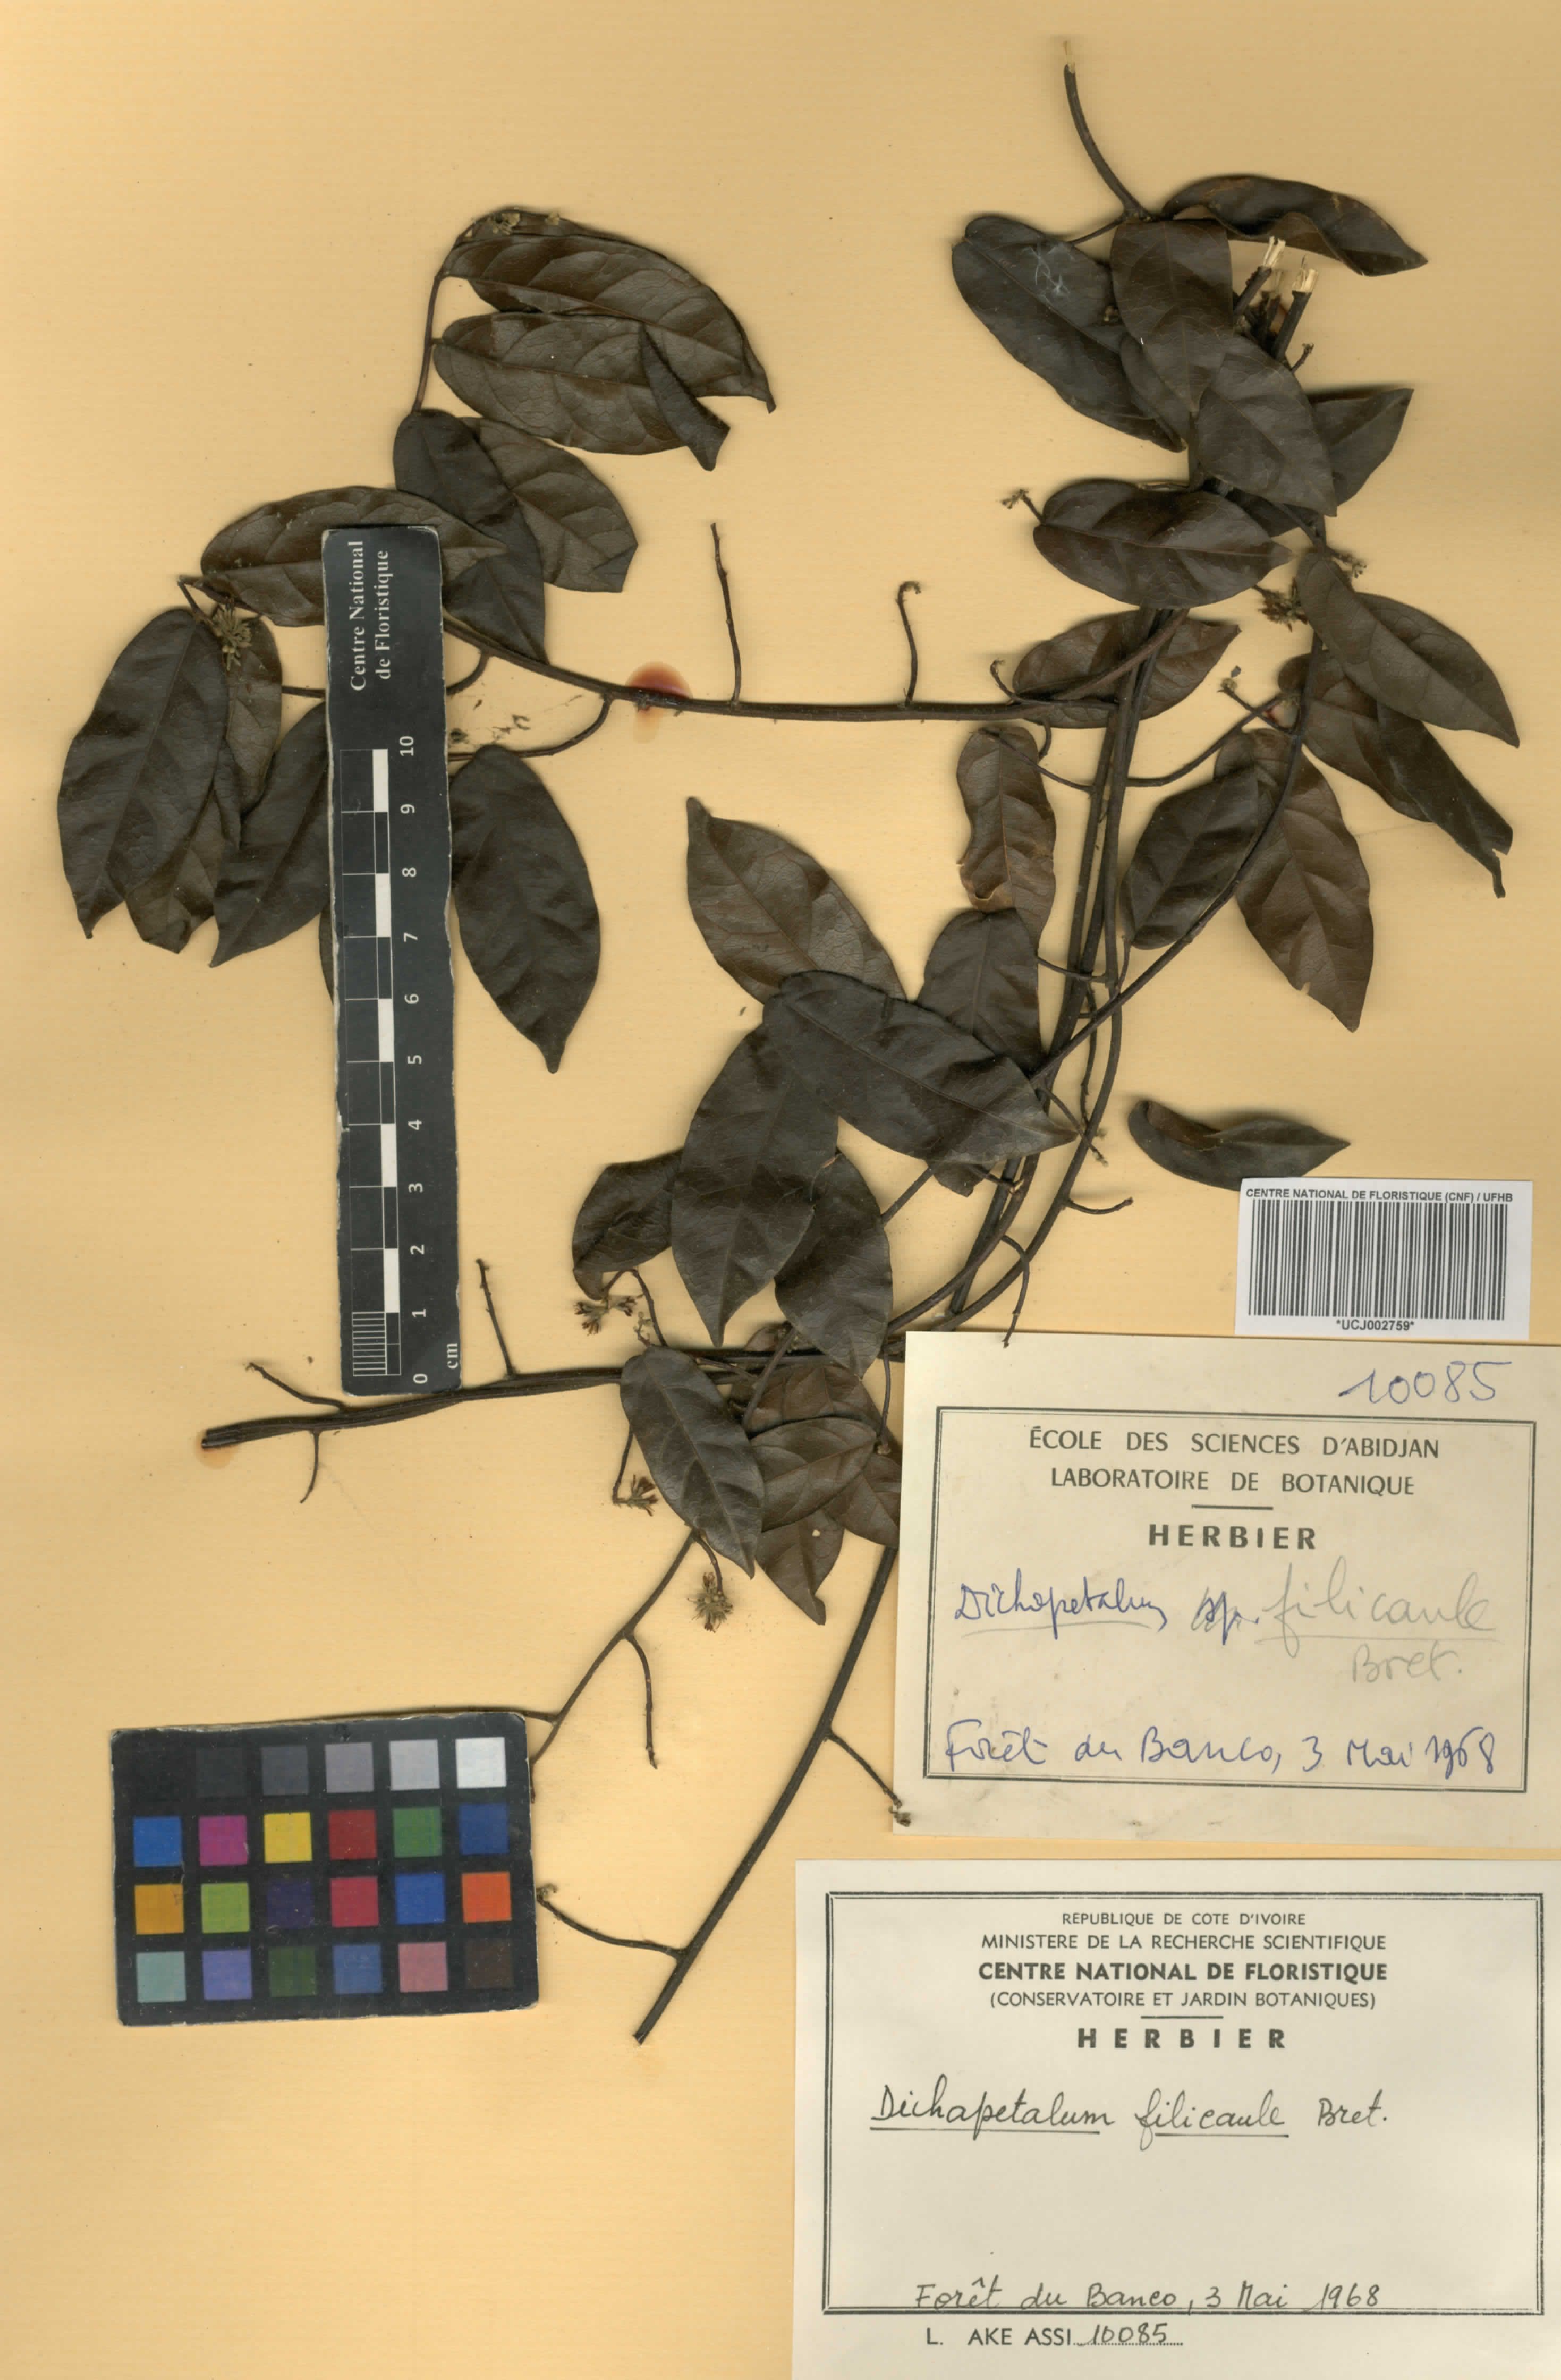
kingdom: Plantae
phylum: Tracheophyta
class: Magnoliopsida
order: Malpighiales
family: Dichapetalaceae
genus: Dichapetalum
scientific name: Dichapetalum filicaule
